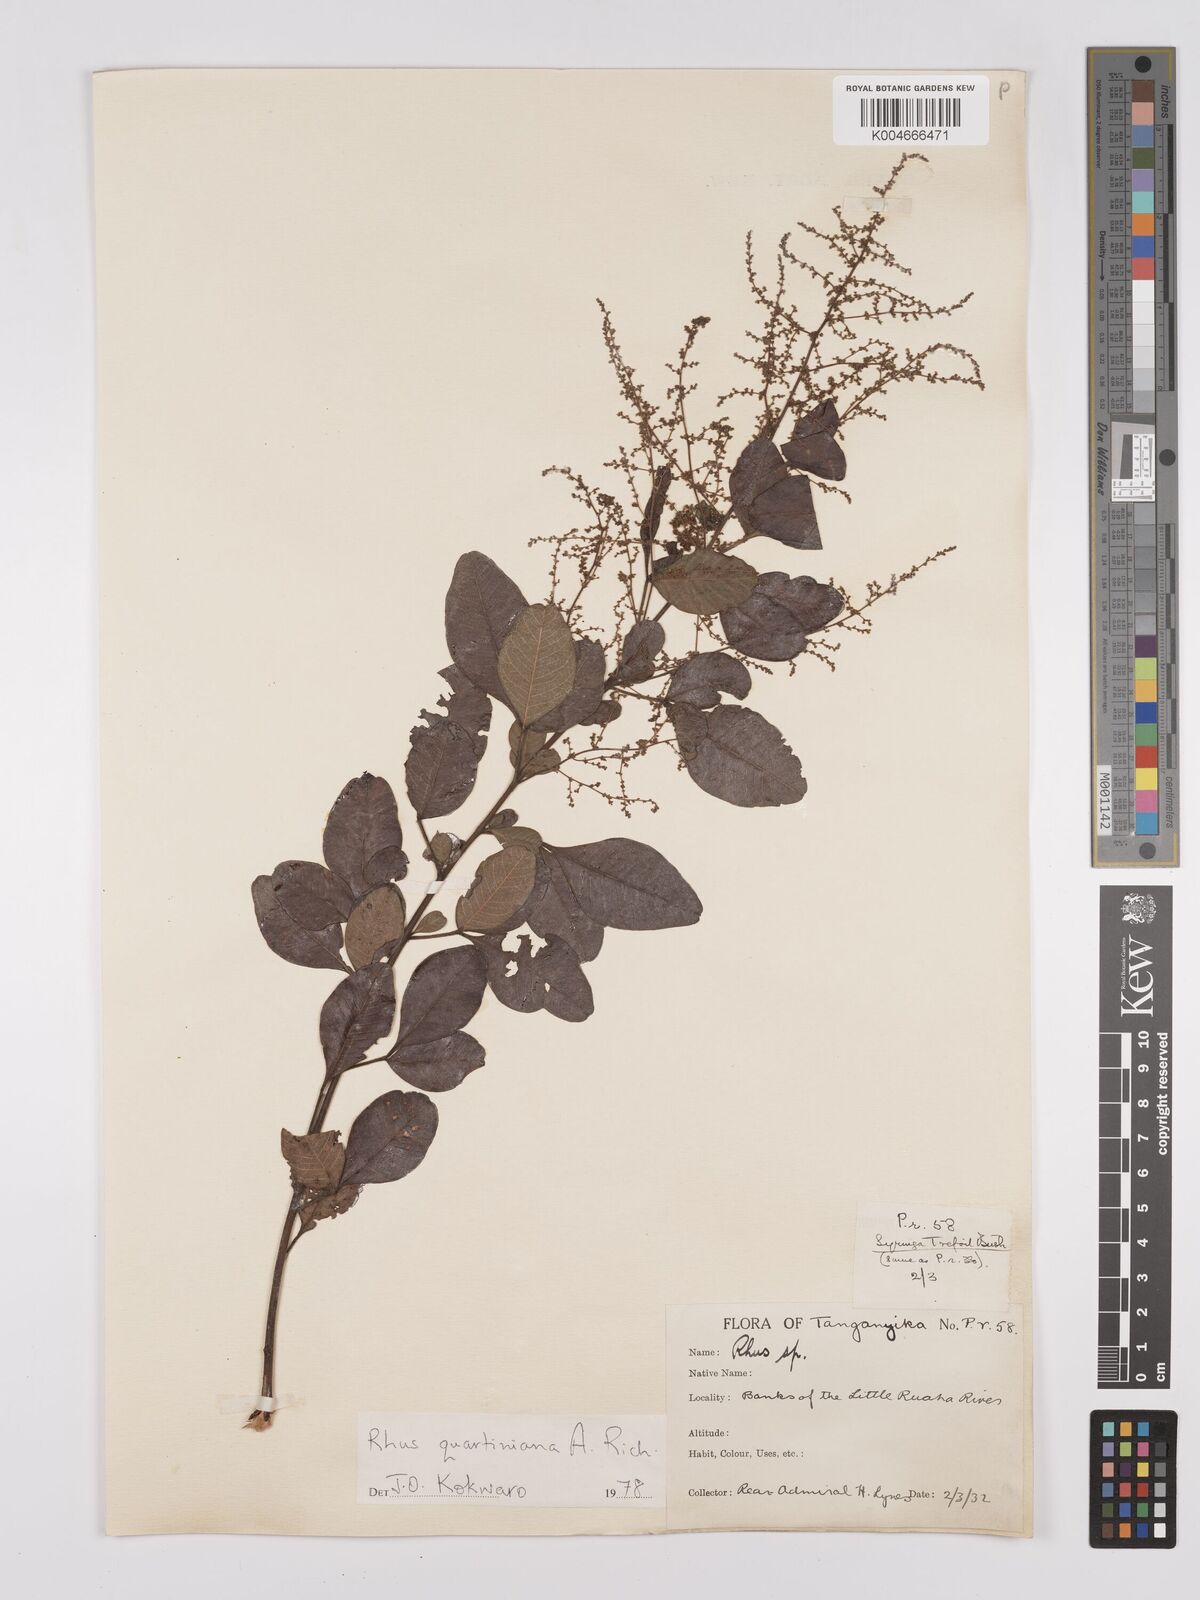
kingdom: Plantae
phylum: Tracheophyta
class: Magnoliopsida
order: Sapindales
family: Anacardiaceae
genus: Searsia
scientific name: Searsia quartiniana
